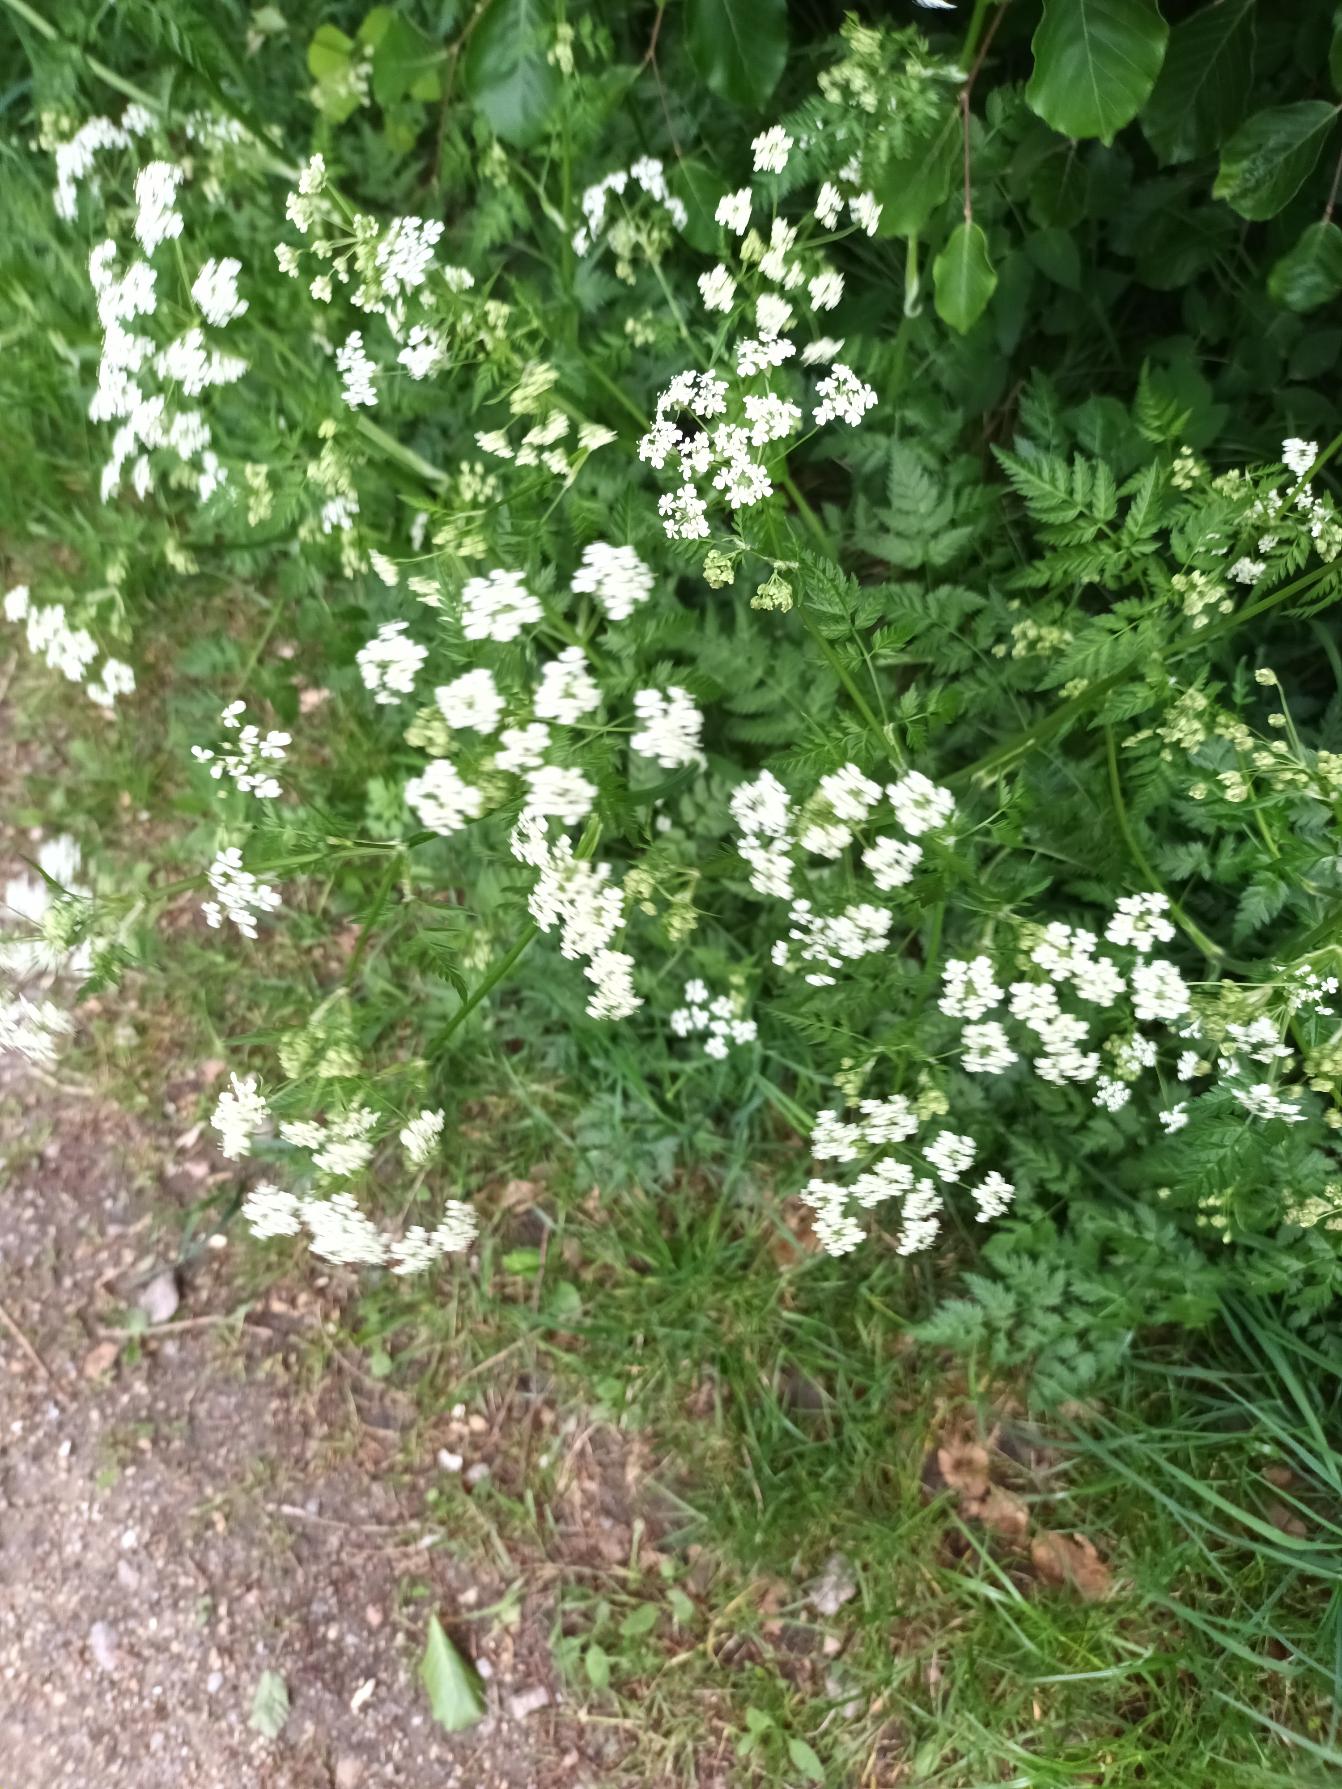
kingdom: Plantae
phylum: Tracheophyta
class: Magnoliopsida
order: Apiales
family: Apiaceae
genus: Anthriscus
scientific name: Anthriscus sylvestris
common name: Vild kørvel
